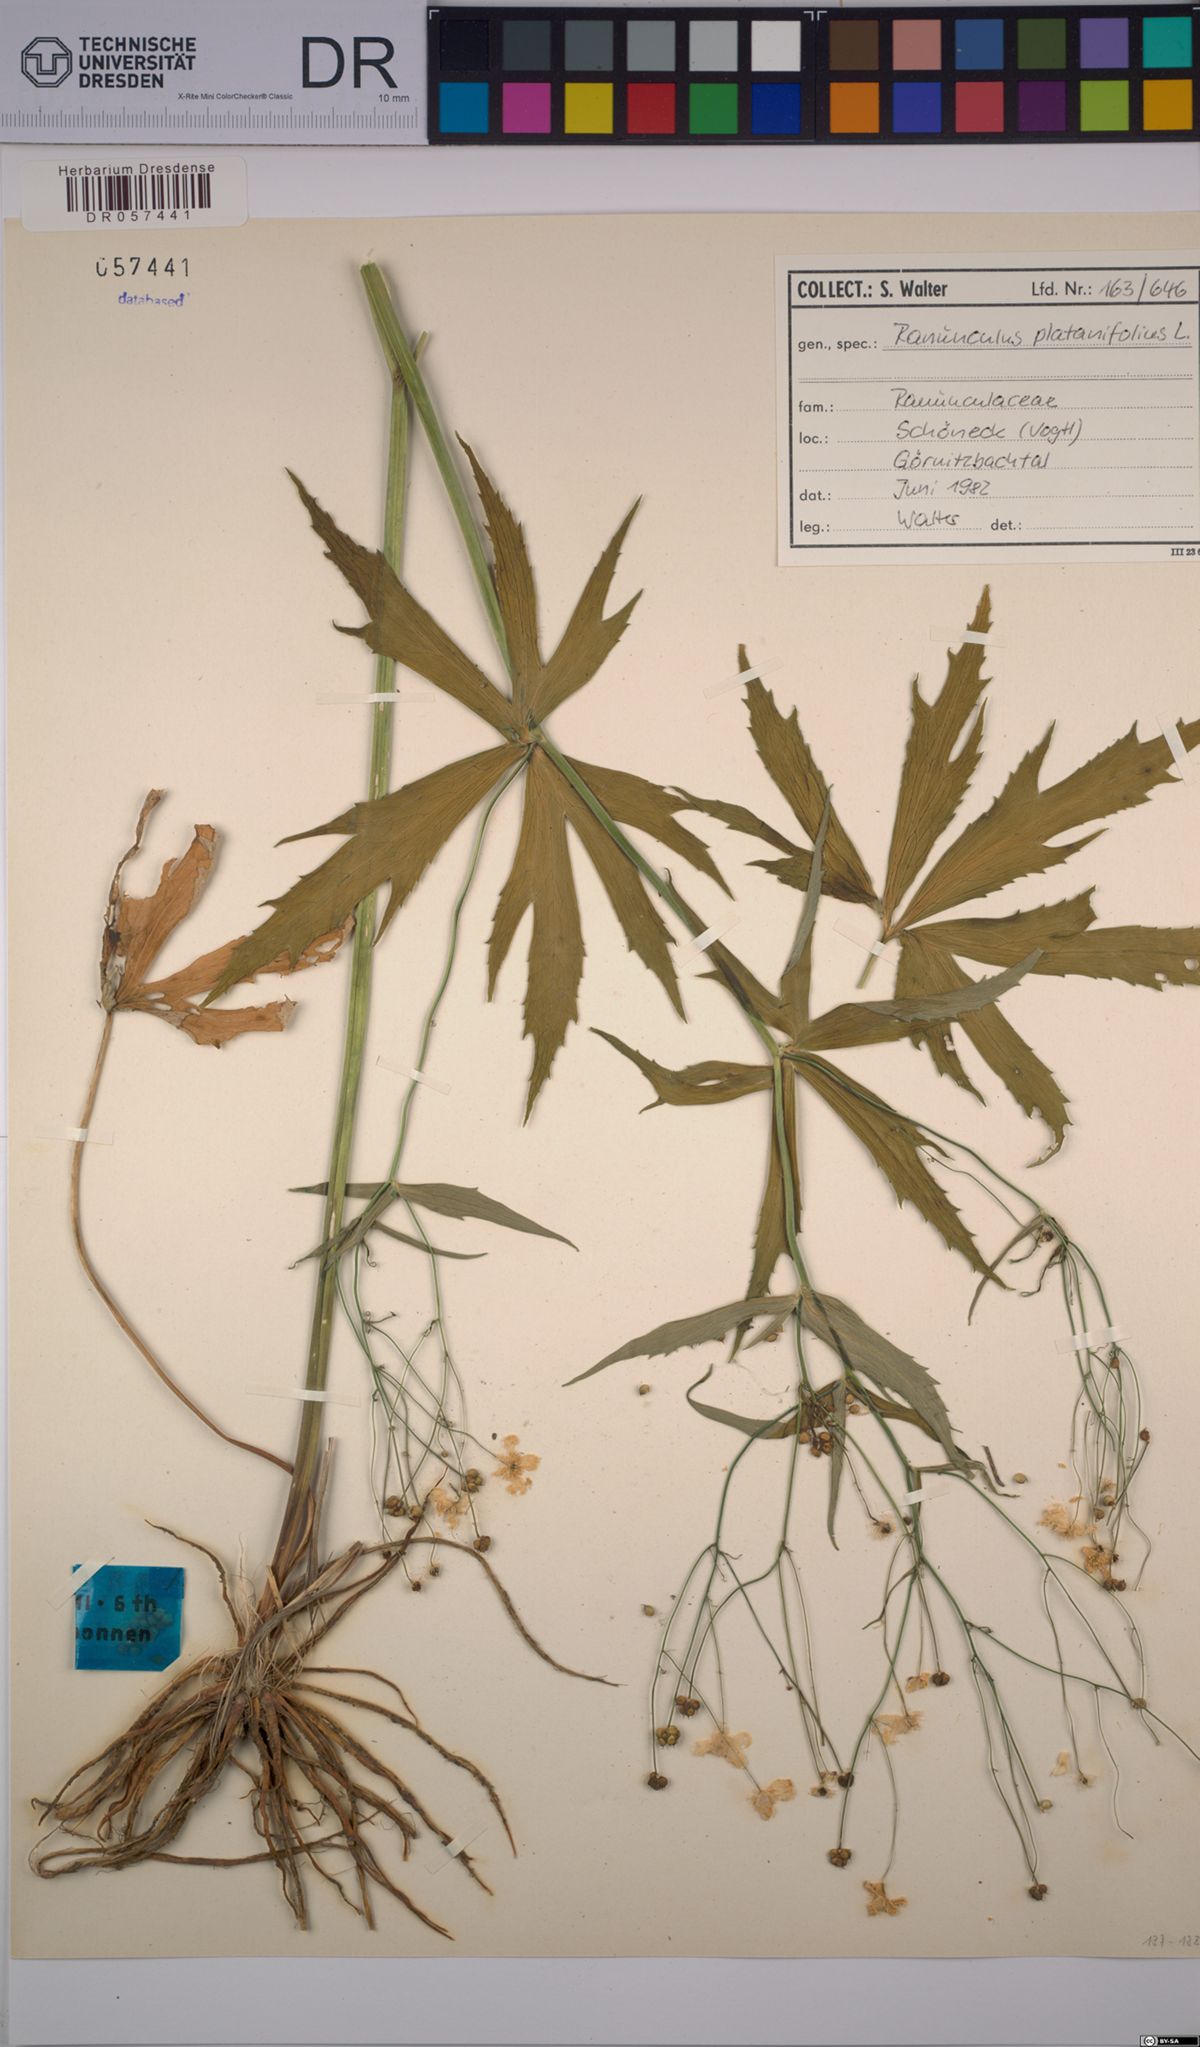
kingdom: Plantae
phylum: Tracheophyta
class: Magnoliopsida
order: Ranunculales
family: Ranunculaceae
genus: Ranunculus
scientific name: Ranunculus platanifolius
